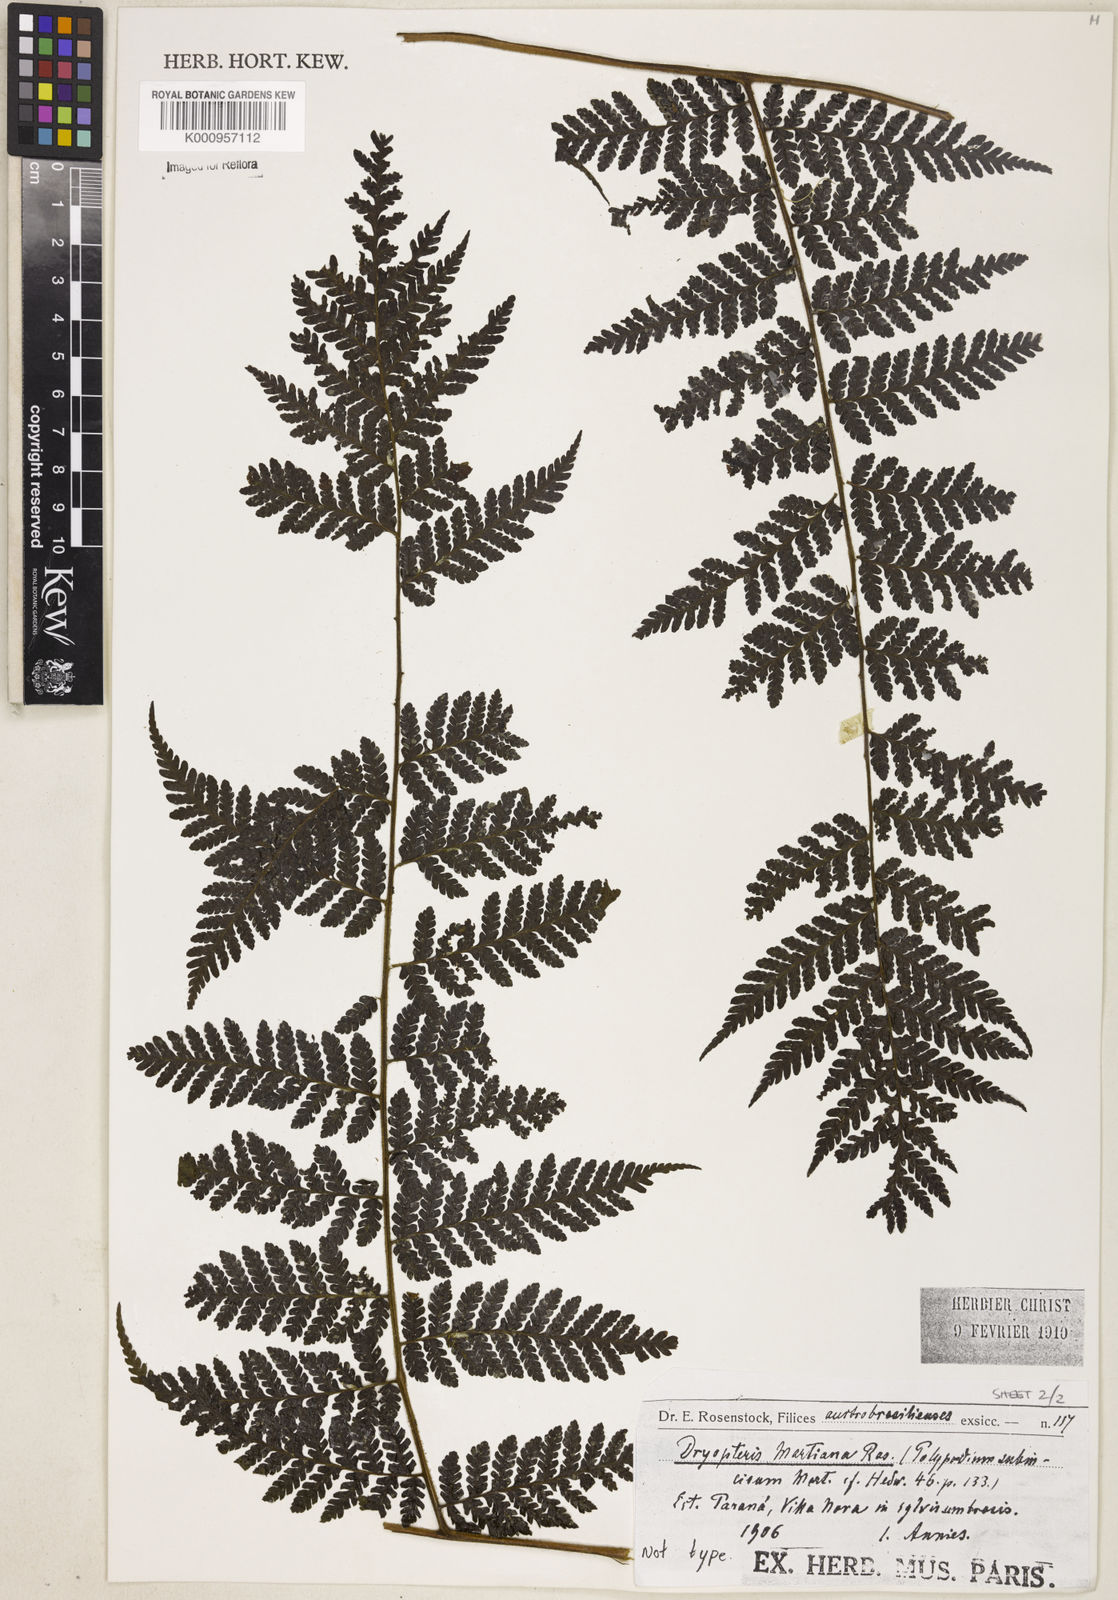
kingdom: Plantae
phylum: Tracheophyta
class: Polypodiopsida
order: Polypodiales
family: Dryopteridaceae
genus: Megalastrum
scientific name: Megalastrum
